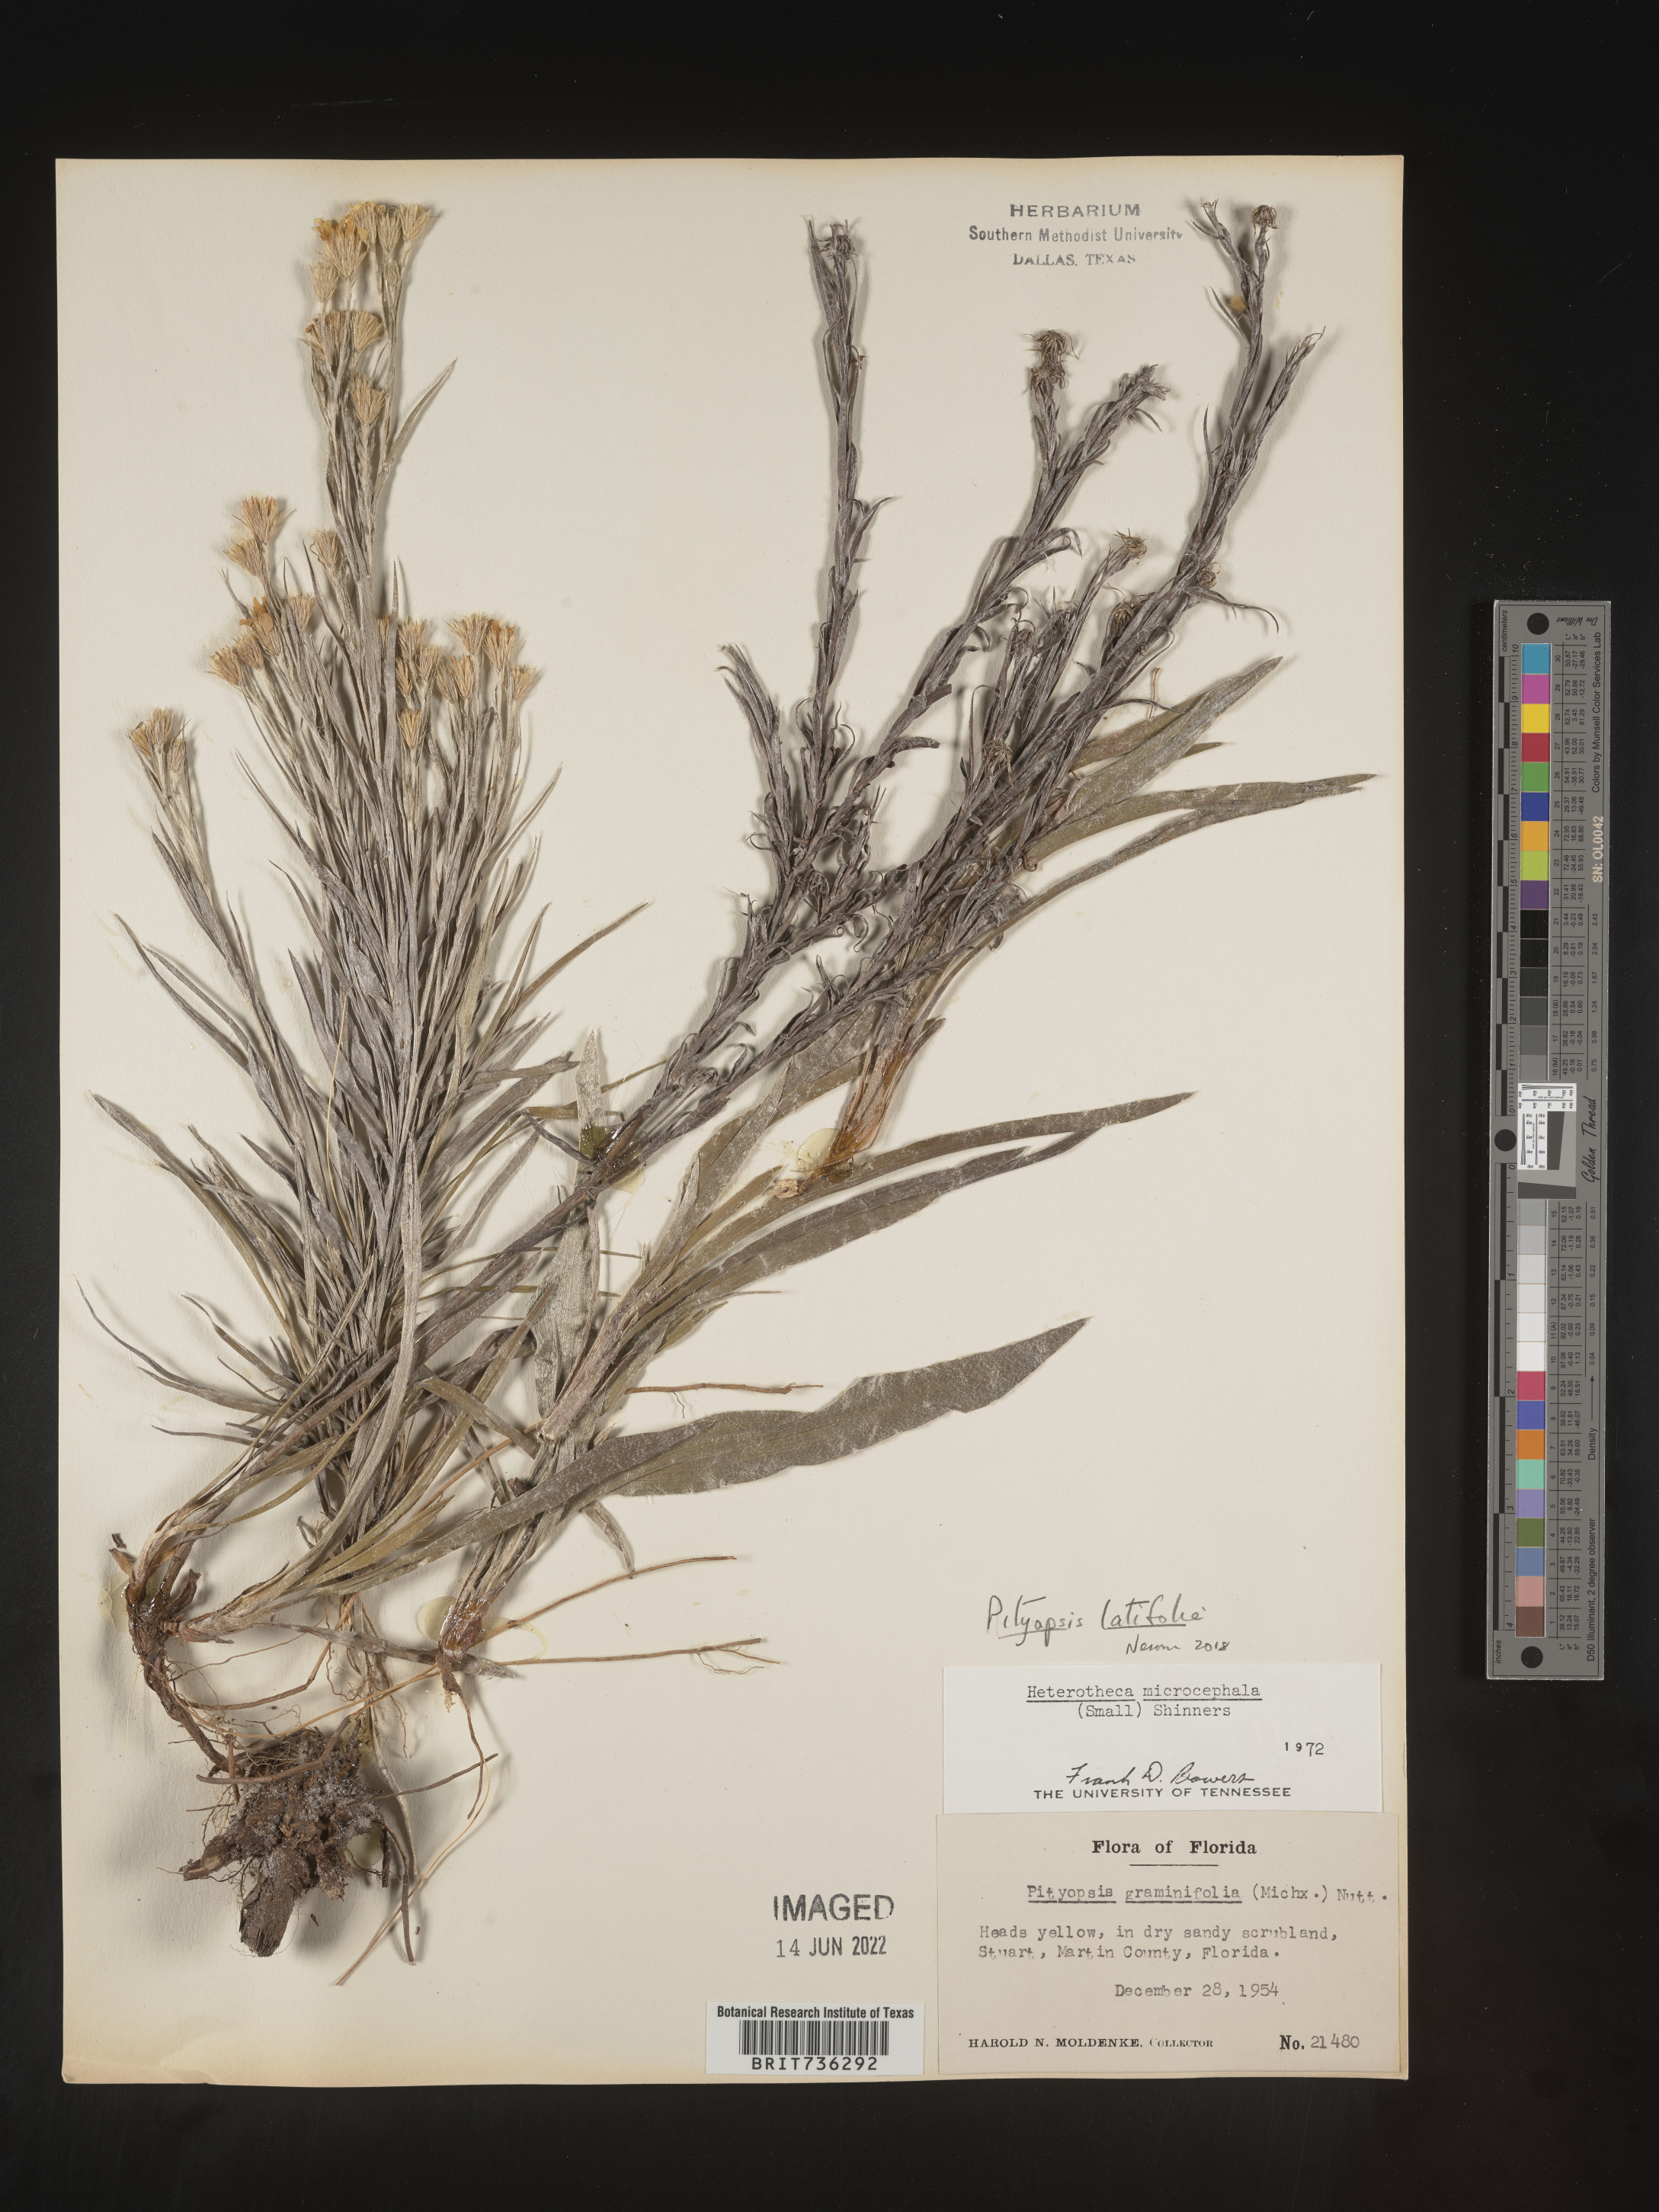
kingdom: Plantae
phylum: Tracheophyta
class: Magnoliopsida
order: Asterales
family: Asteraceae
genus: Pityopsis
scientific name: Pityopsis latifolia
